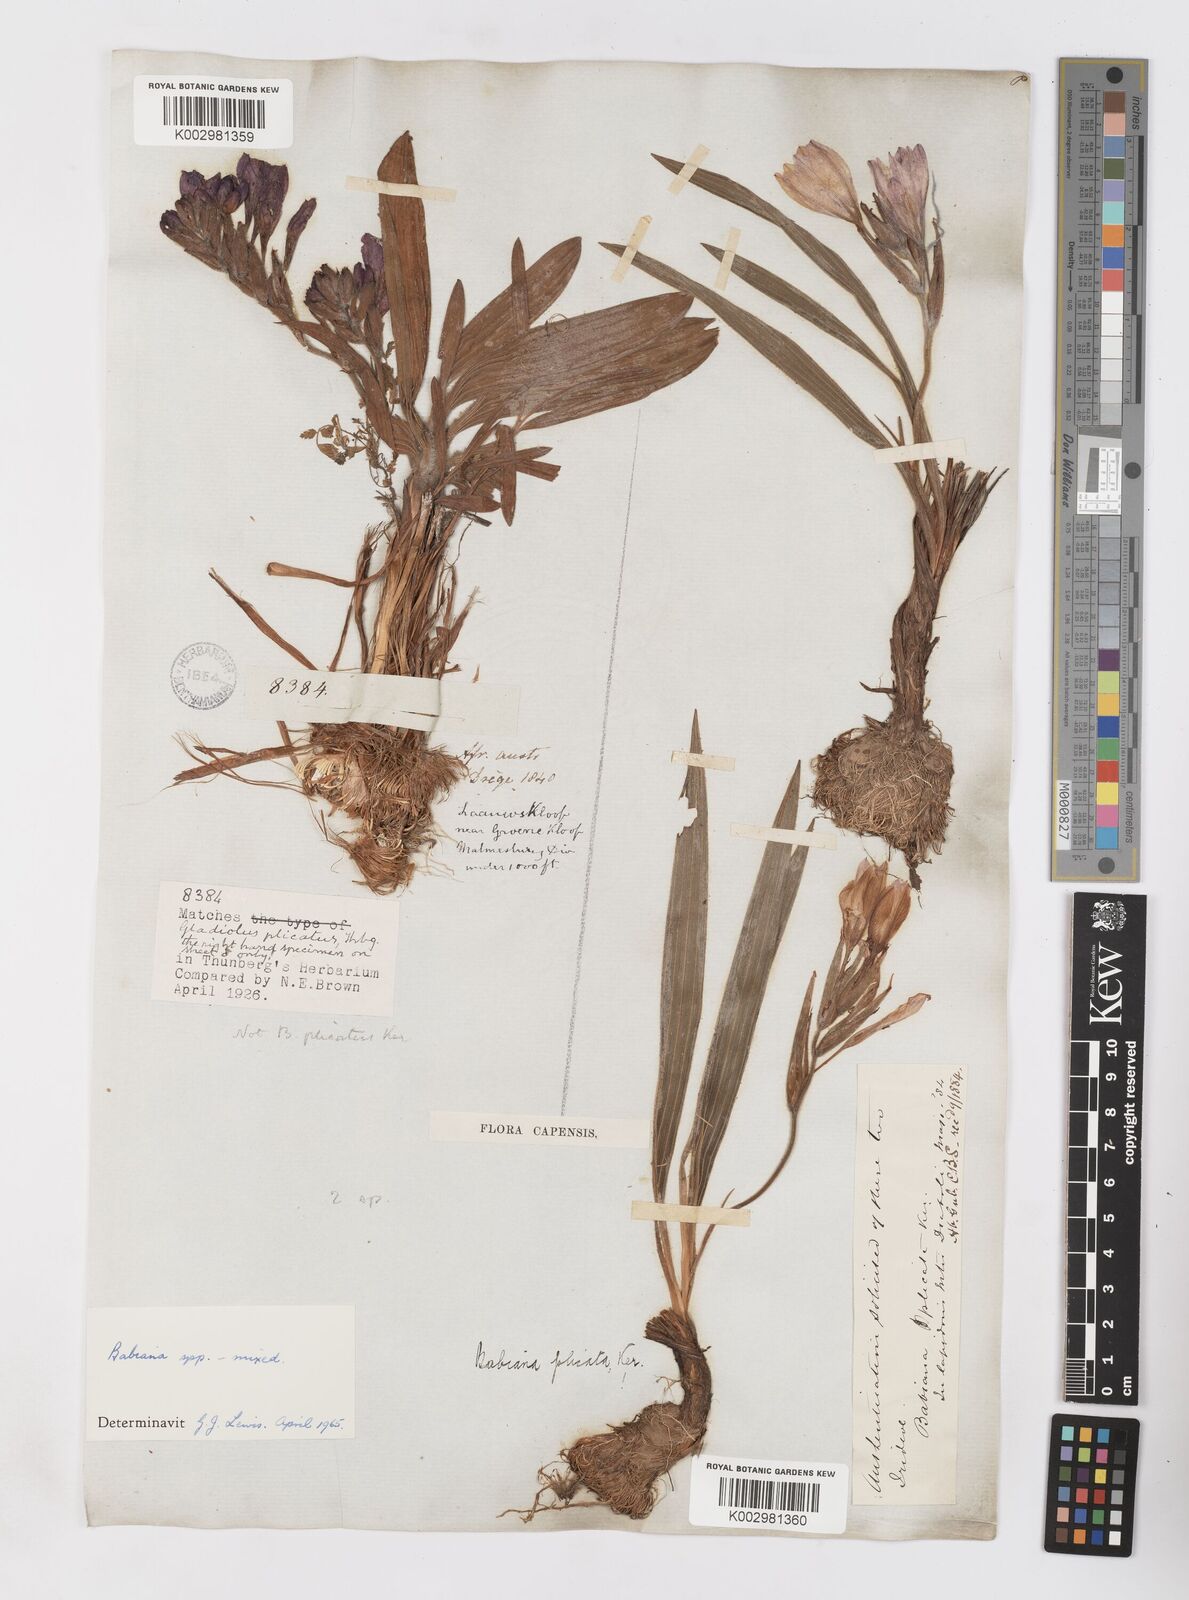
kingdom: Plantae
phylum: Tracheophyta
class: Liliopsida
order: Asparagales
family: Iridaceae
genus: Babiana
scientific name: Babiana
